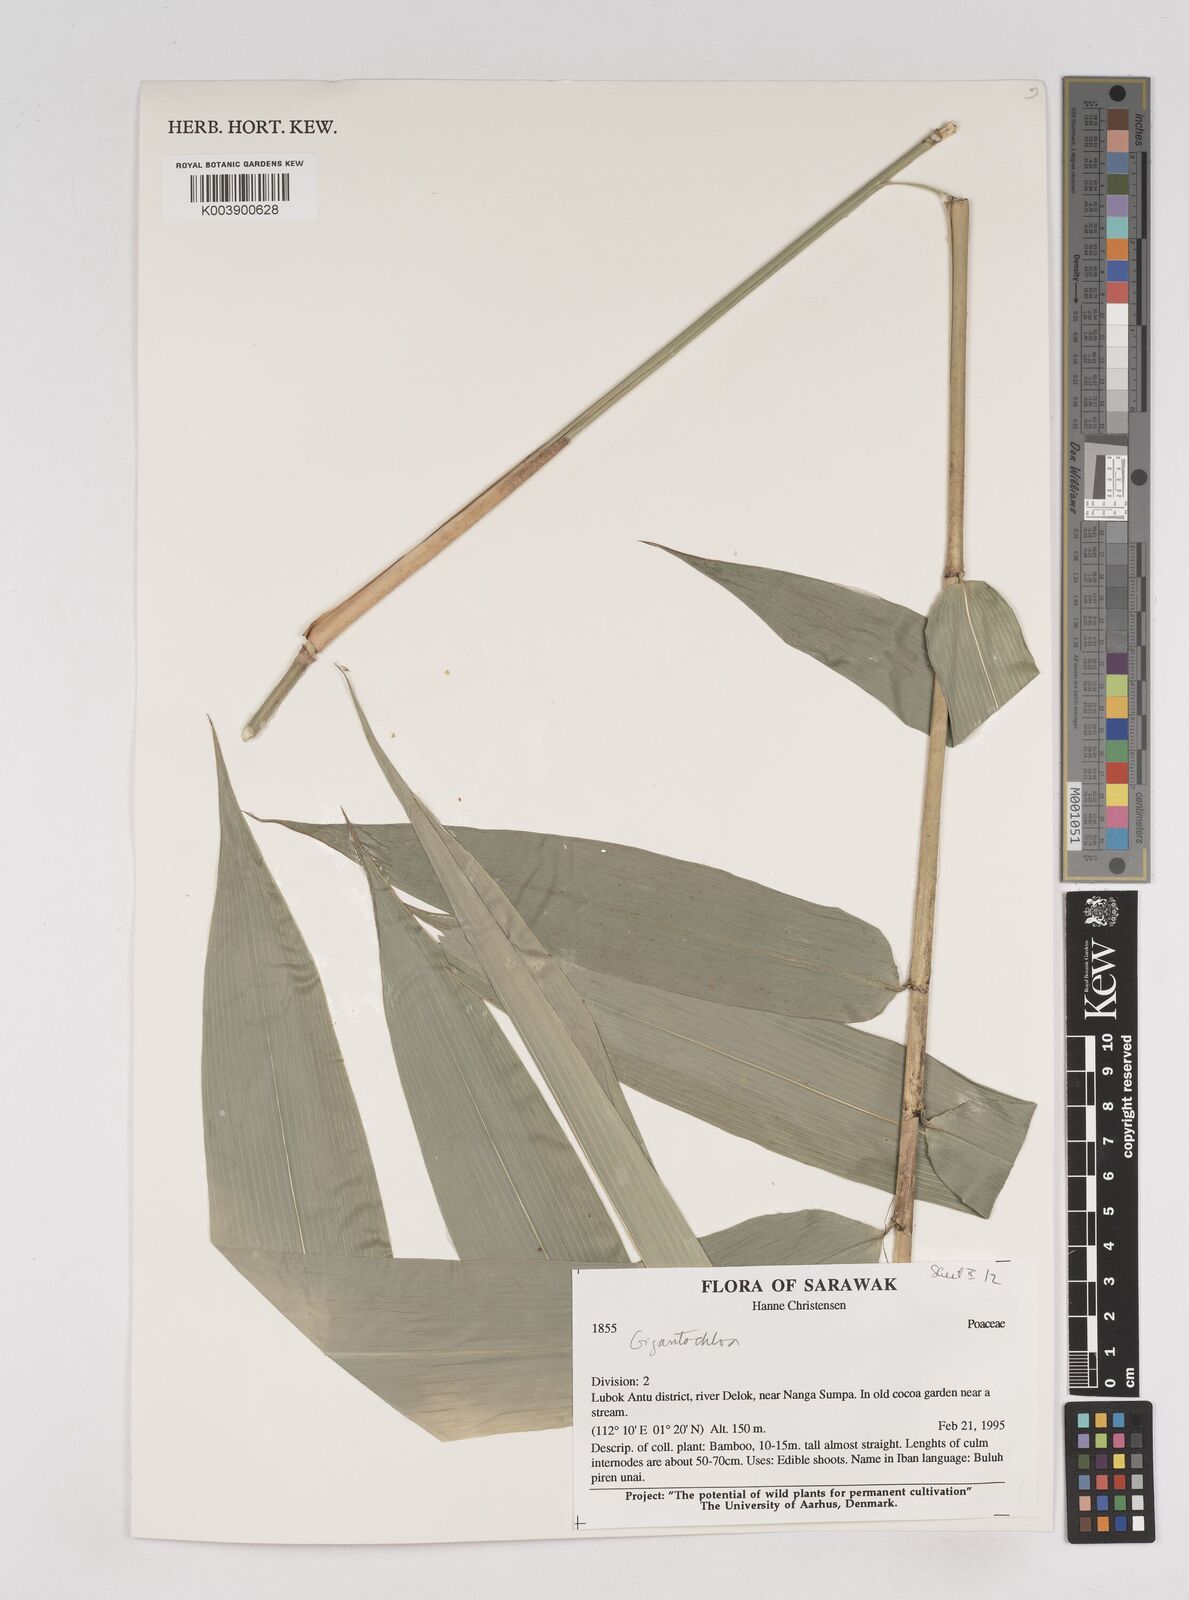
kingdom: Plantae
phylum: Tracheophyta
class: Liliopsida
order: Poales
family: Poaceae
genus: Gigantochloa
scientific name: Gigantochloa
